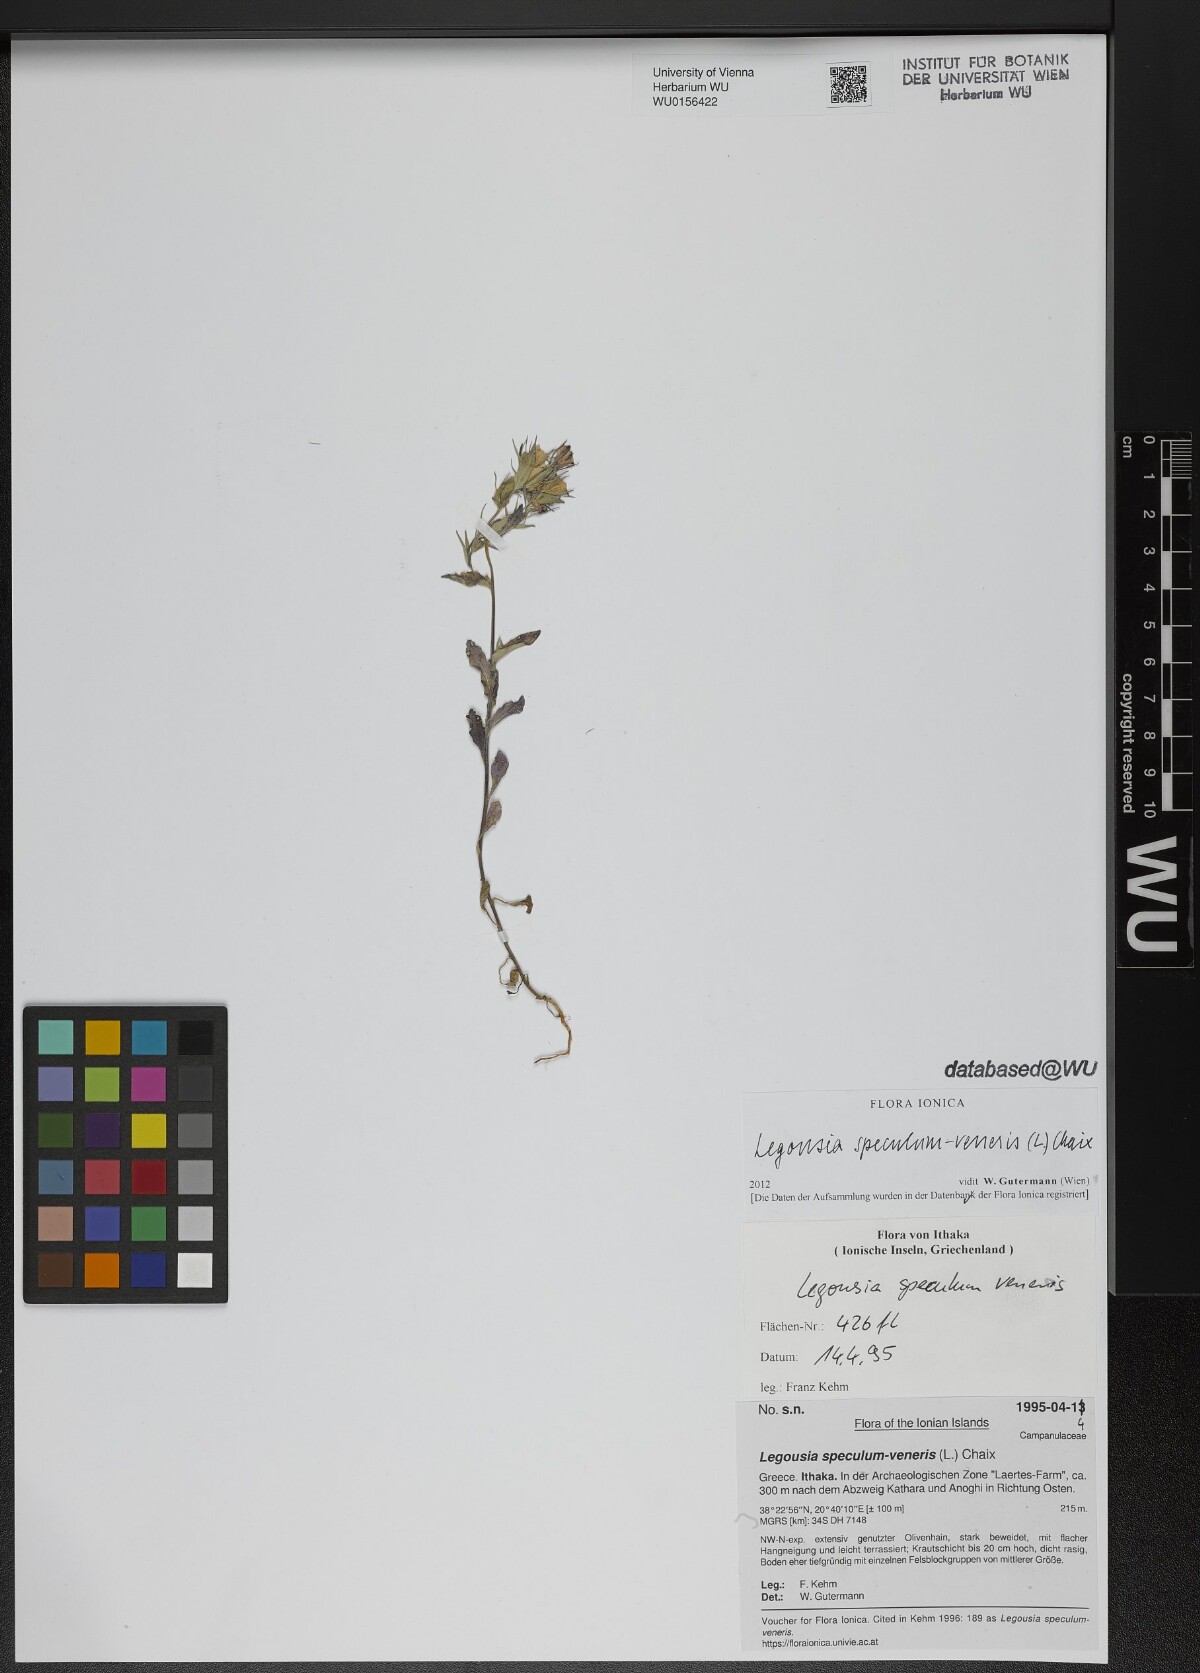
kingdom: Plantae
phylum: Tracheophyta
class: Magnoliopsida
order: Asterales
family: Campanulaceae
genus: Legousia
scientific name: Legousia speculum-veneris
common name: Large venus's-looking-glass
